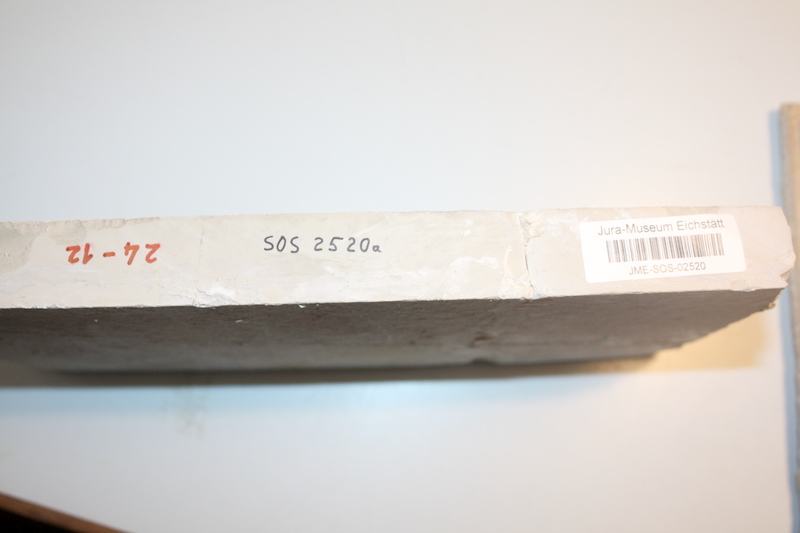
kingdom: Animalia
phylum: Chordata
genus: Pachythrissops
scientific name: Pachythrissops propterus
